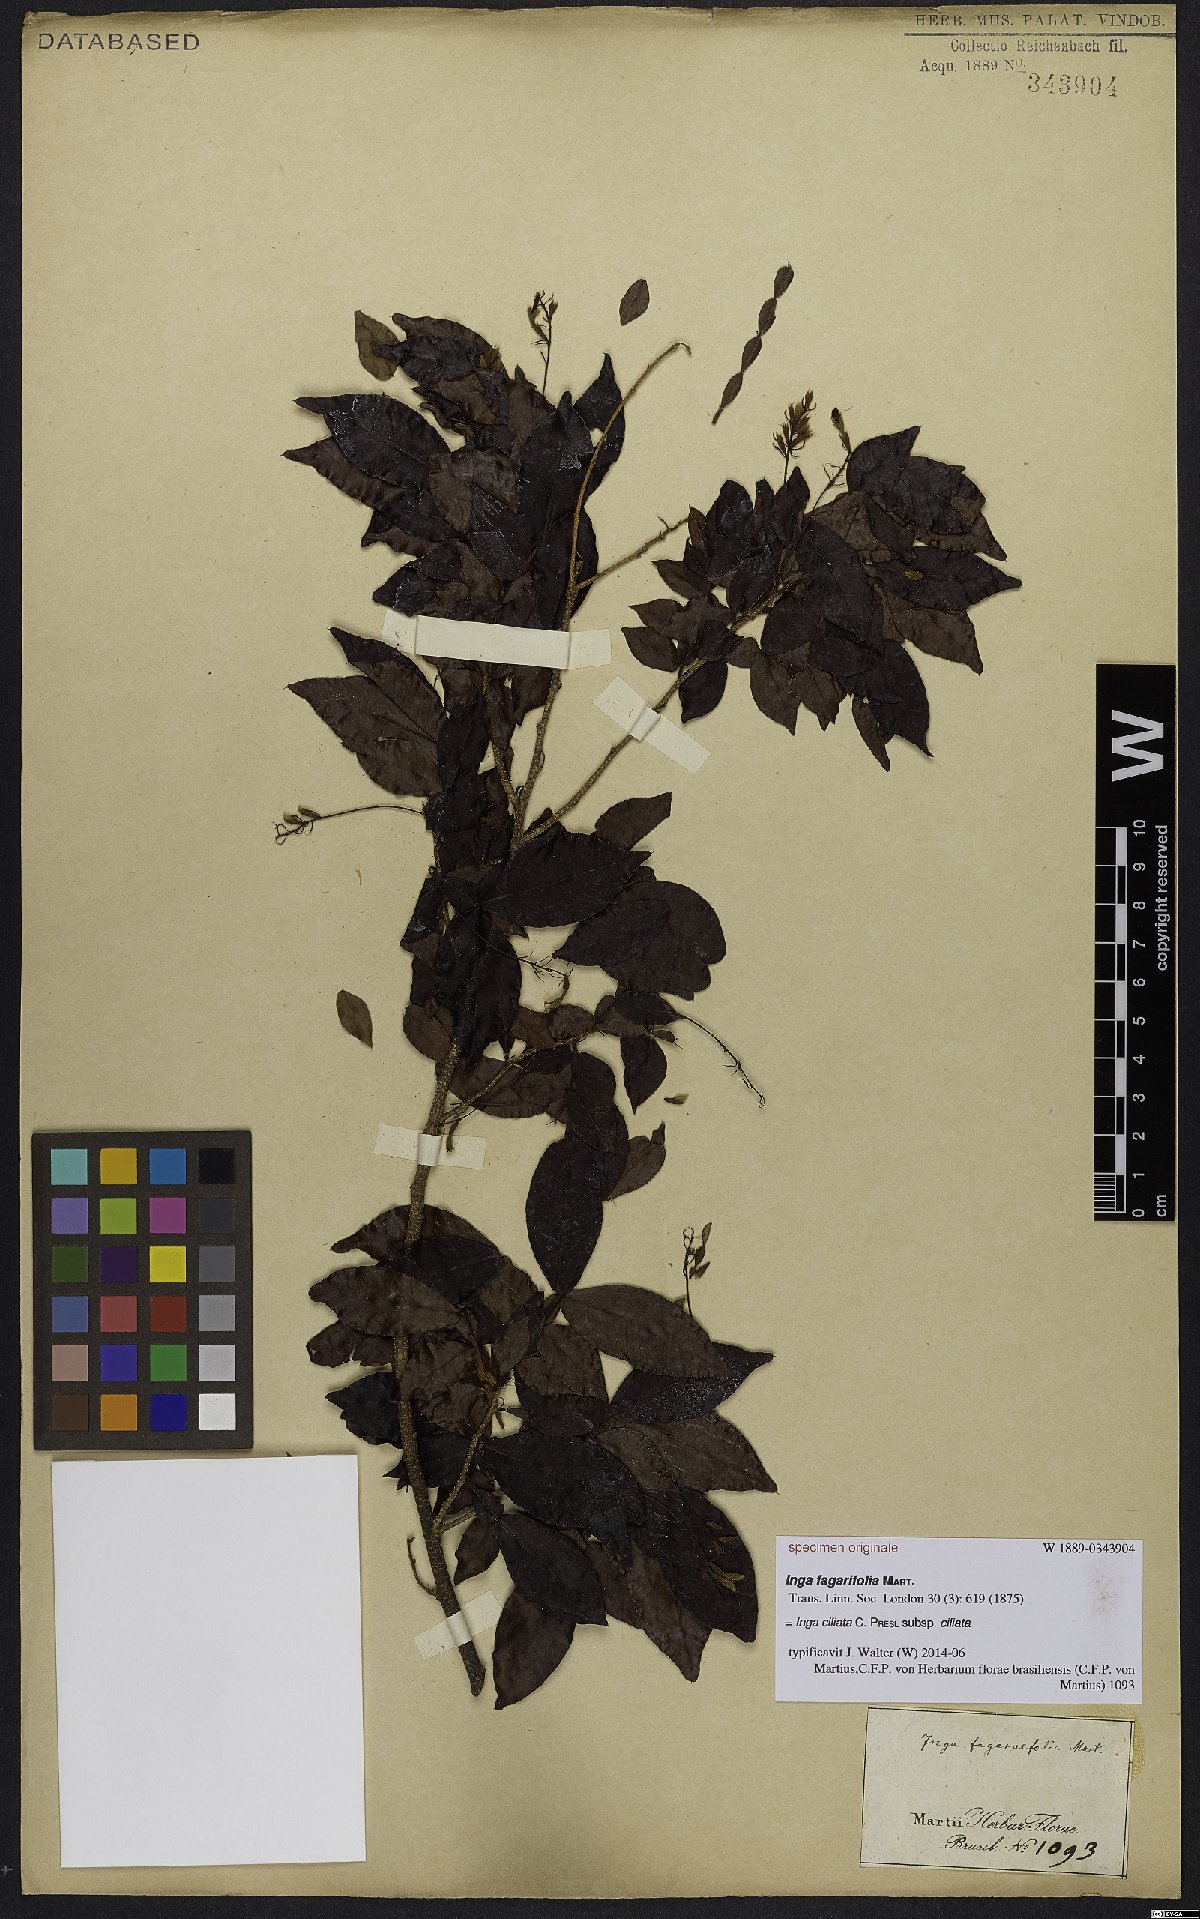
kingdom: Plantae
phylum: Tracheophyta
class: Magnoliopsida
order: Fabales
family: Fabaceae
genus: Inga
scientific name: Inga ciliata
